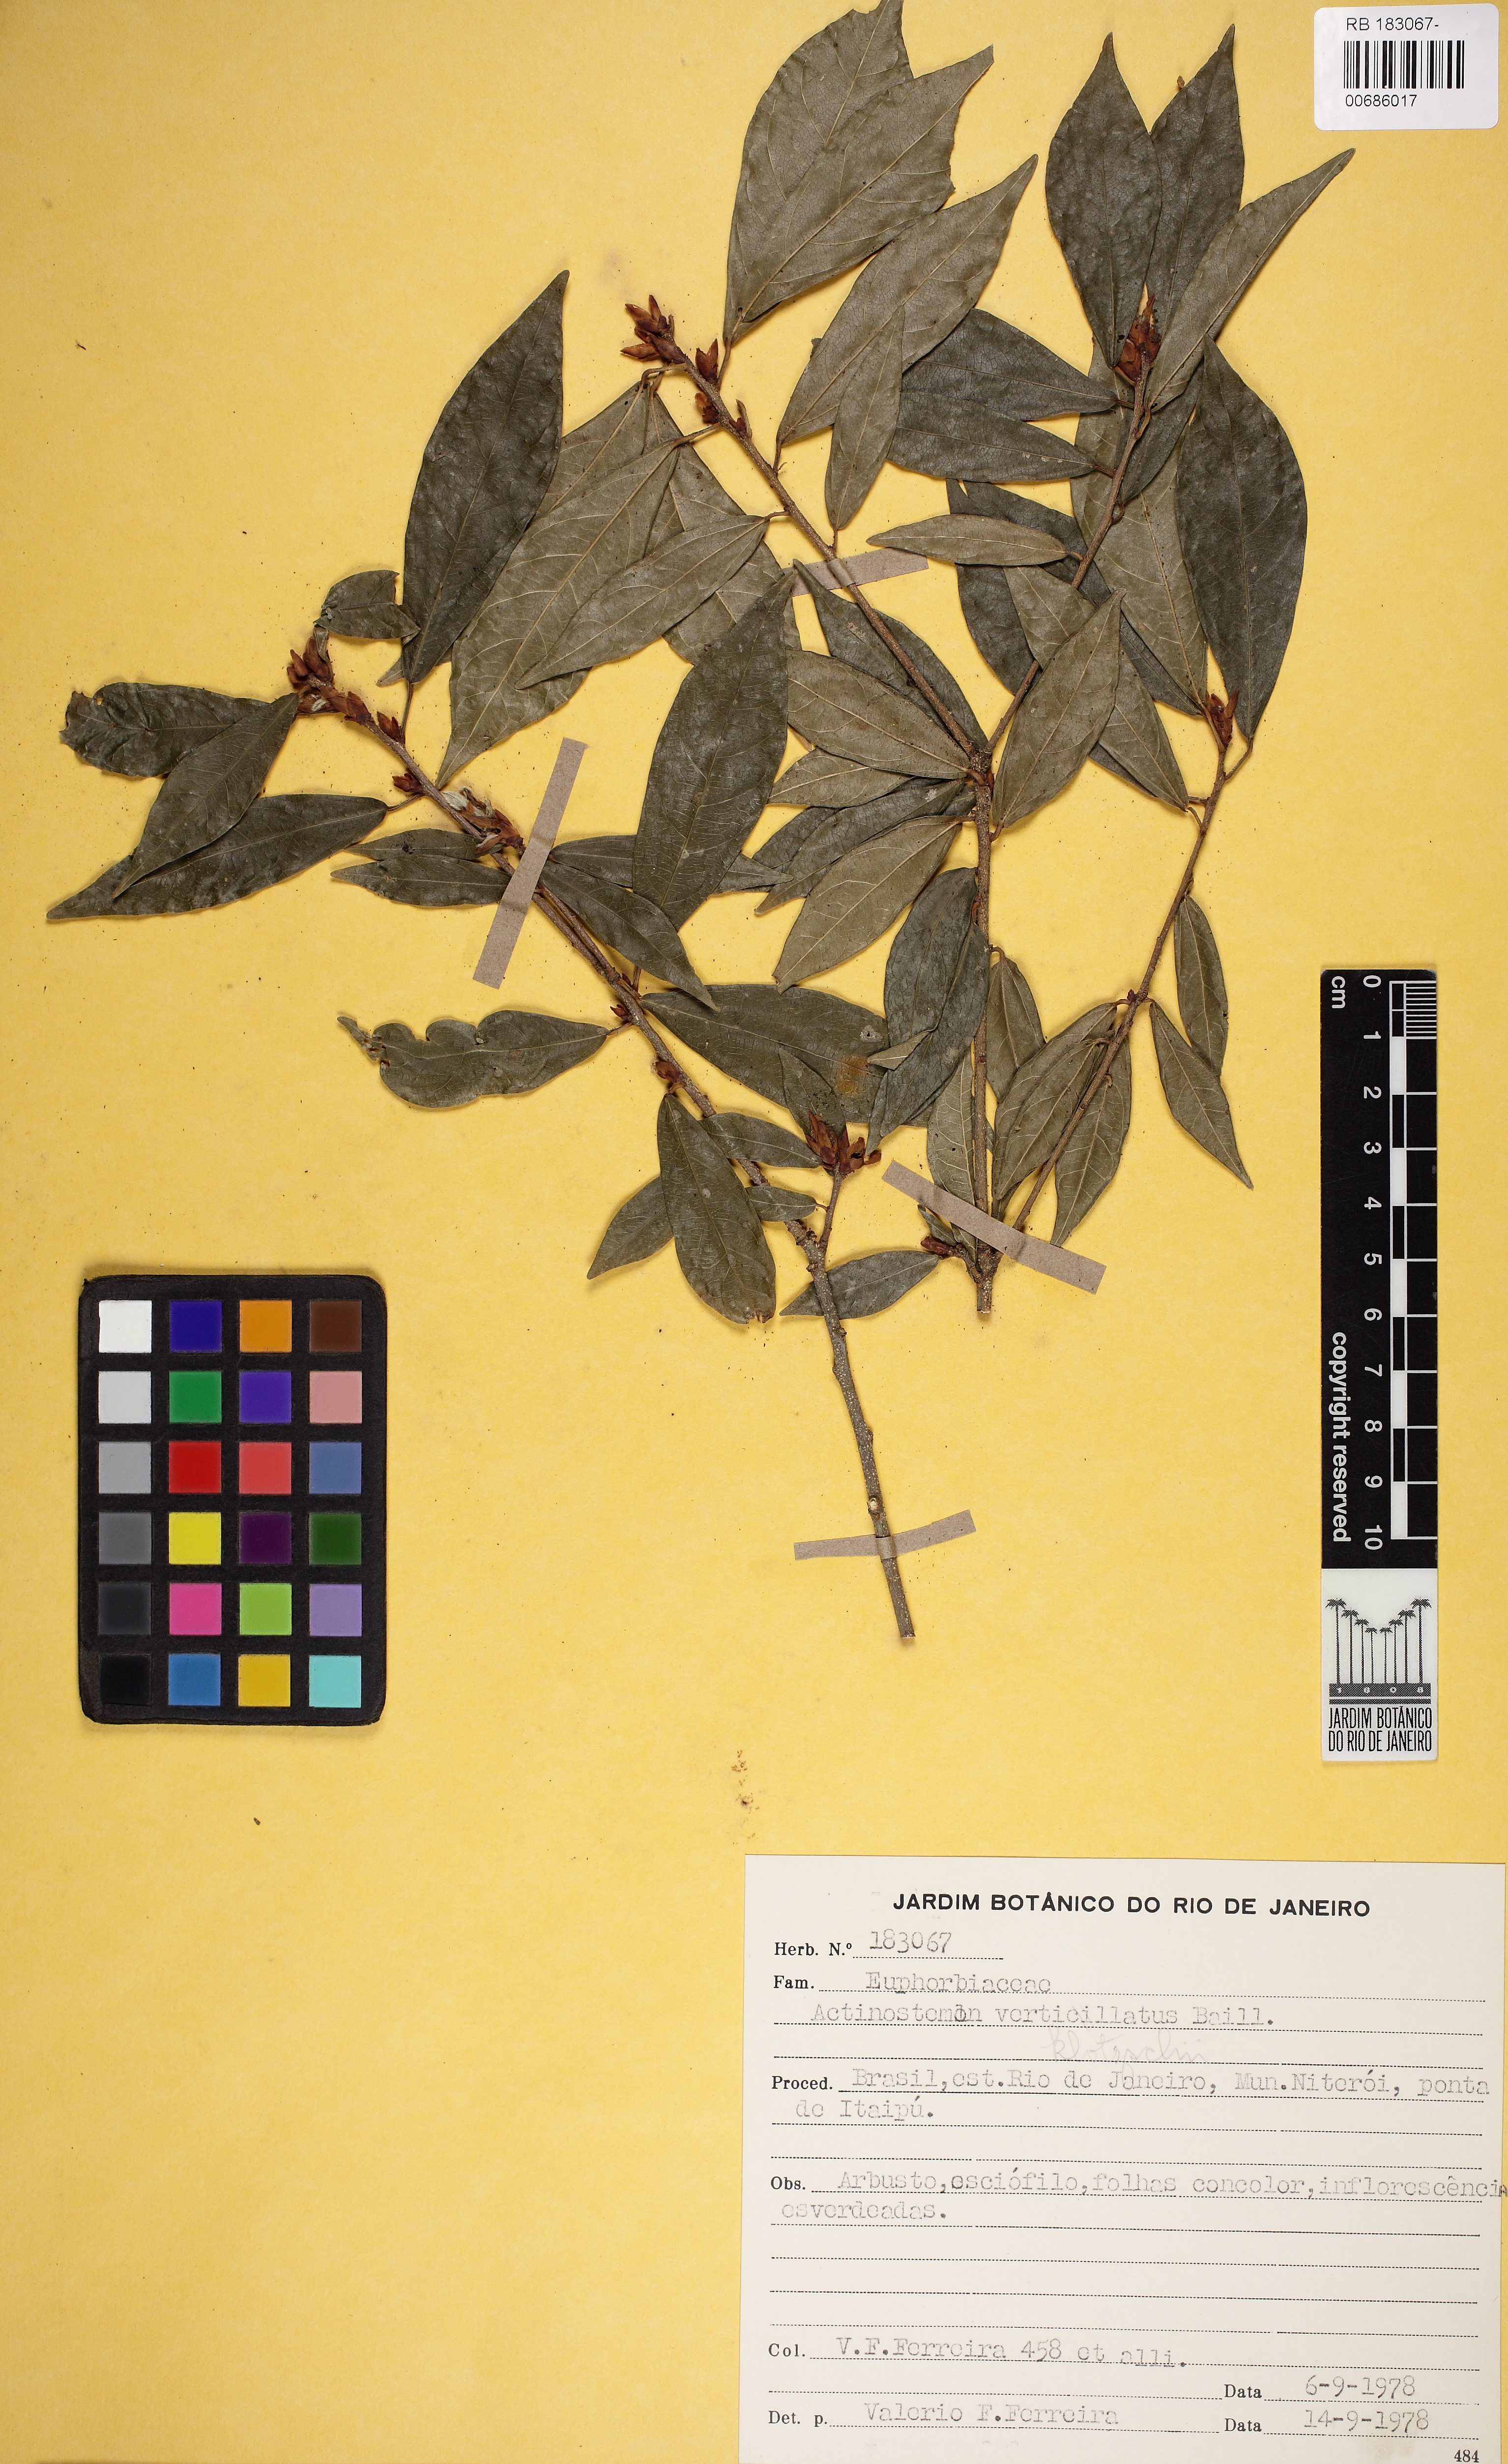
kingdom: Plantae
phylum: Tracheophyta
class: Magnoliopsida
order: Malpighiales
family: Euphorbiaceae
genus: Actinostemon
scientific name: Actinostemon verticillatus
